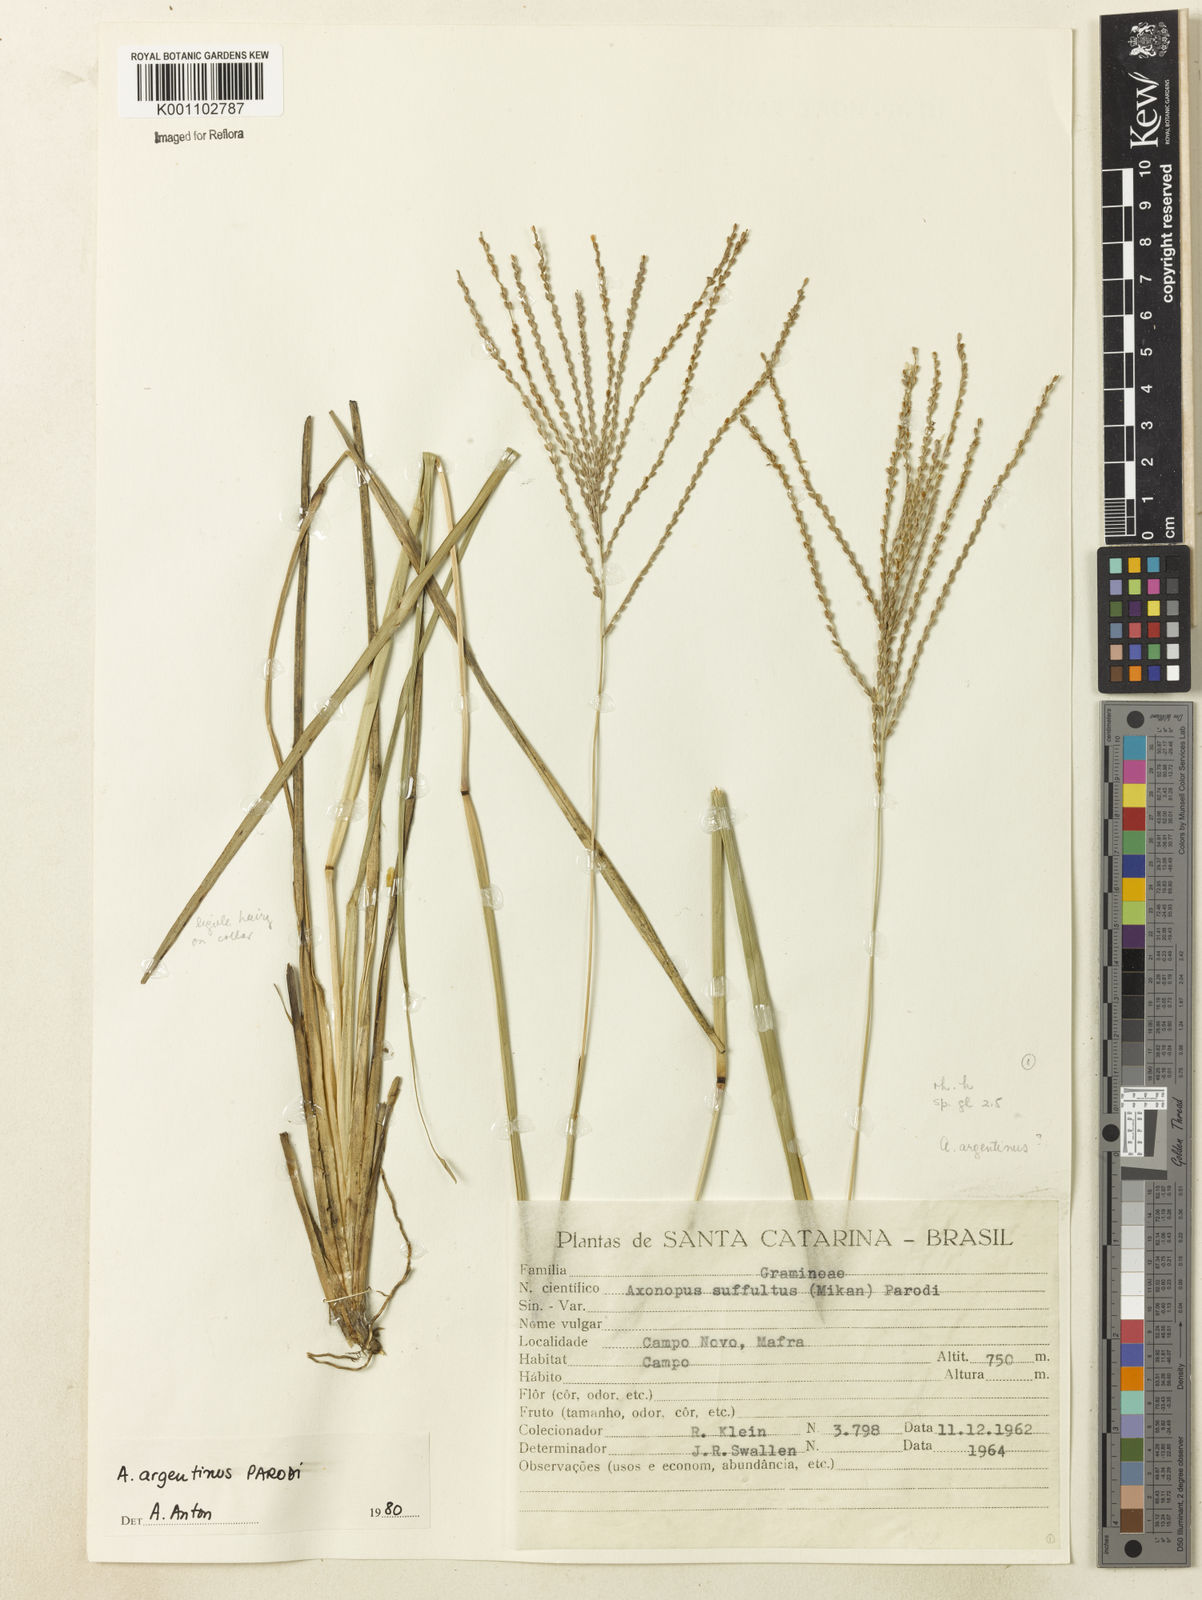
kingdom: Plantae
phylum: Tracheophyta
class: Liliopsida
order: Poales
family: Poaceae
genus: Axonopus
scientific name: Axonopus argentinus
